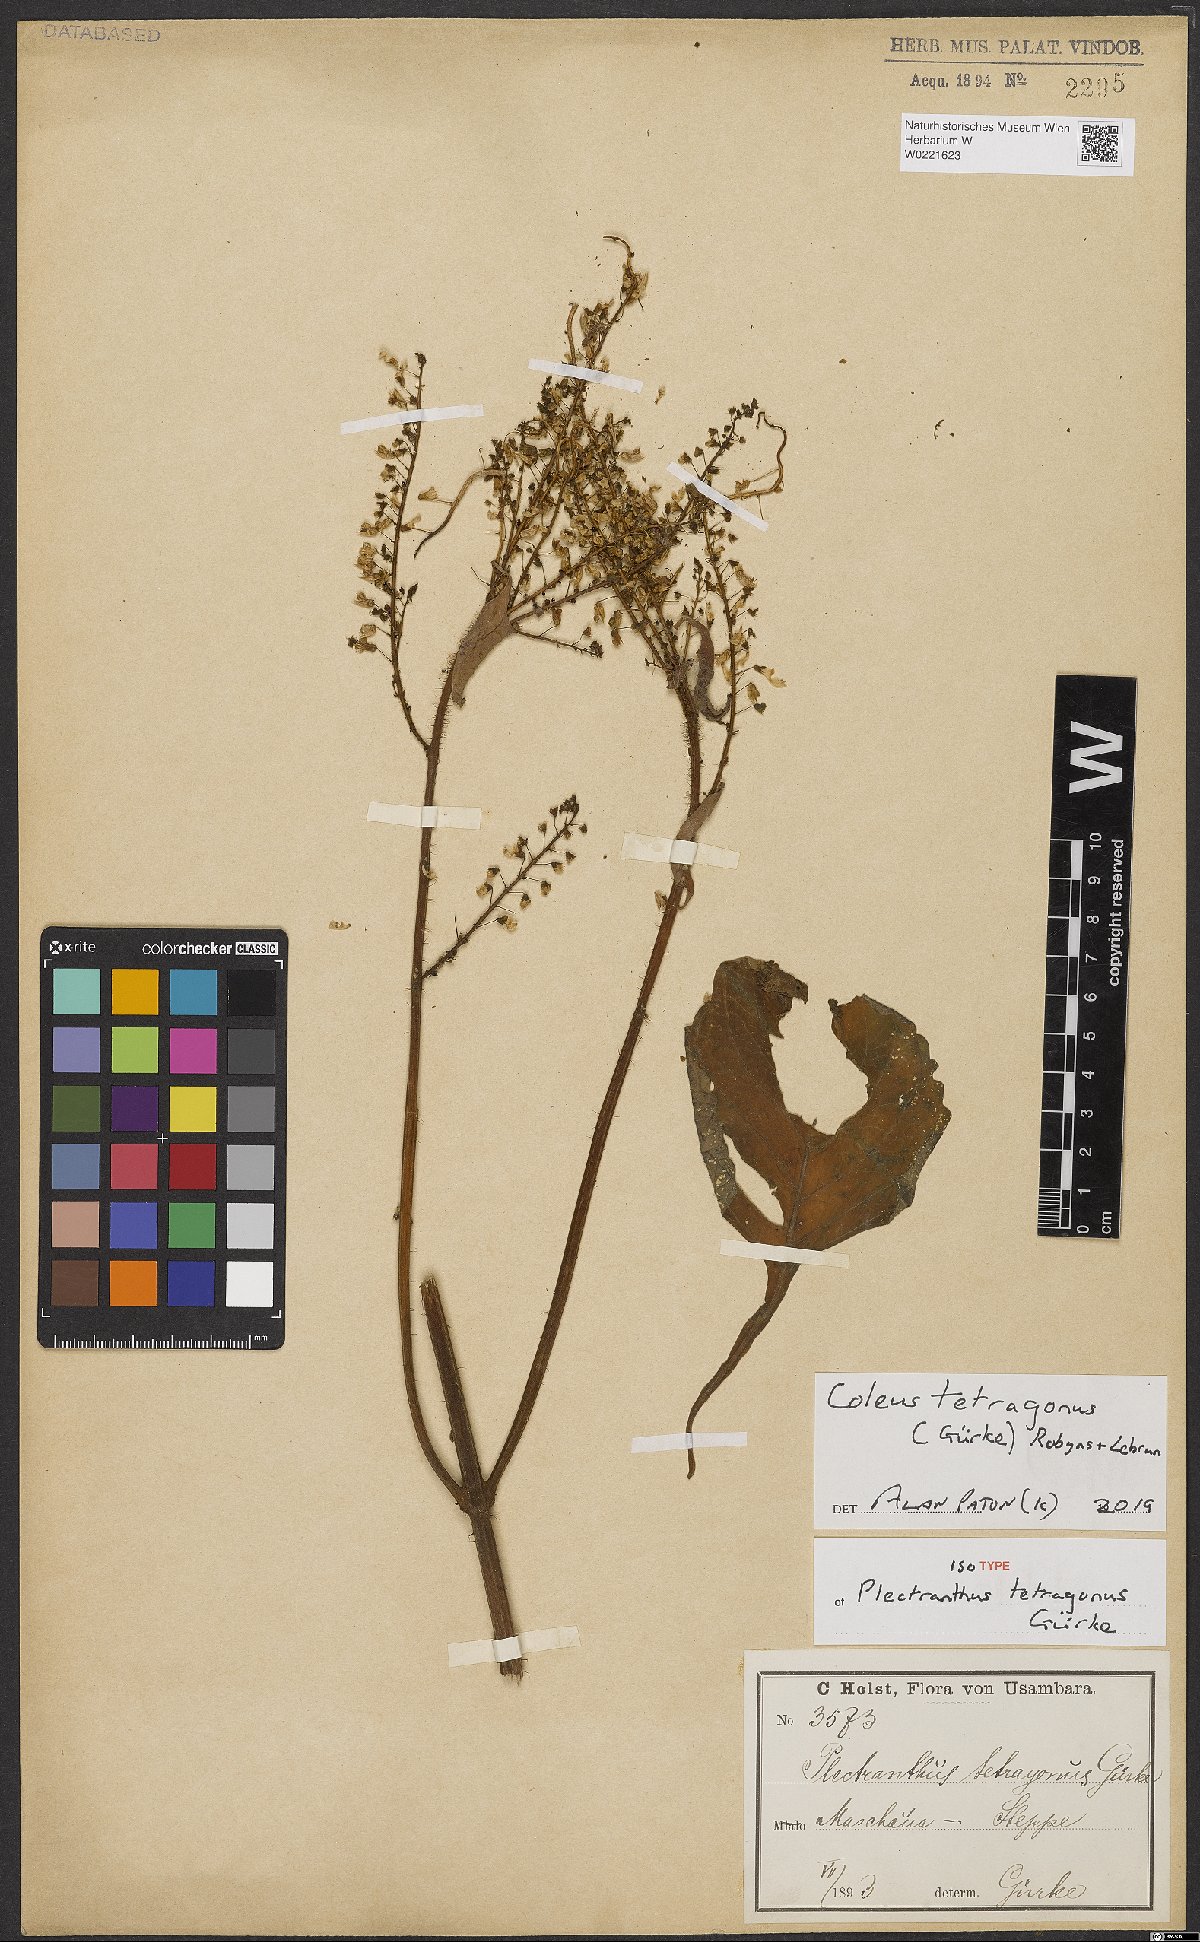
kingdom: Plantae
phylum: Tracheophyta
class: Magnoliopsida
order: Lamiales
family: Lamiaceae
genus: Coleus
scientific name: Coleus tetragonus
